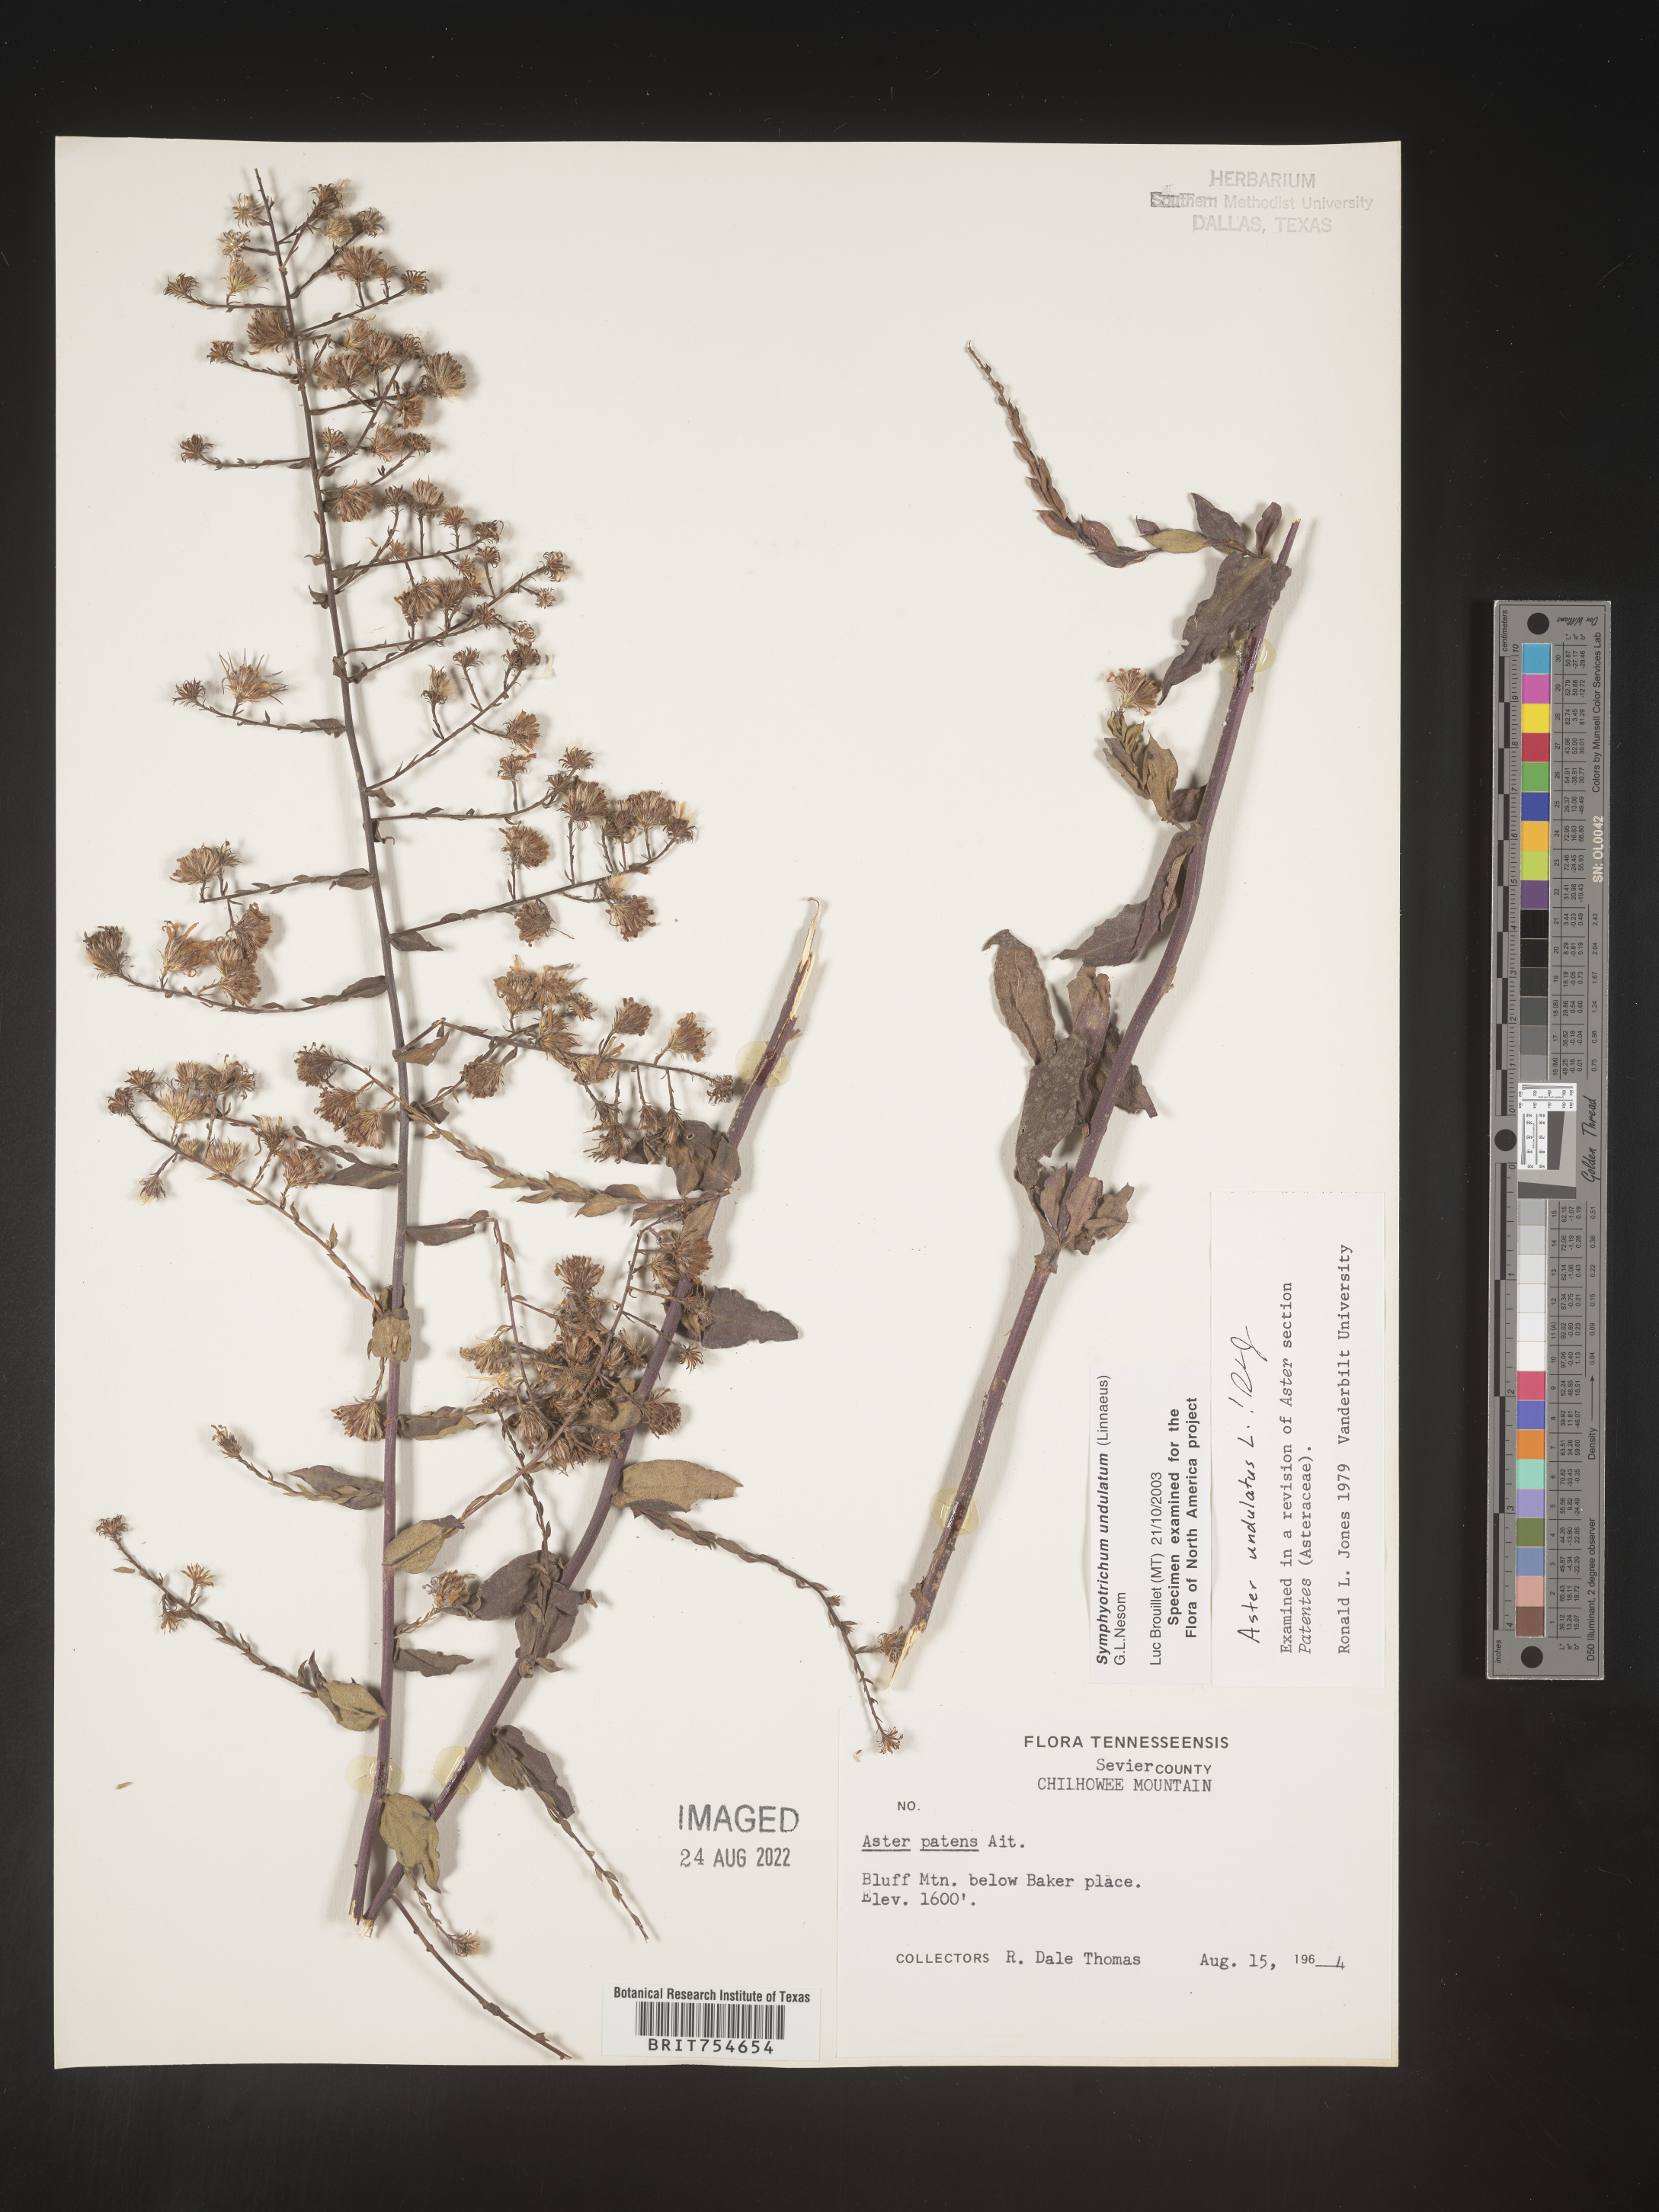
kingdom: Plantae
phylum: Tracheophyta
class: Magnoliopsida
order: Asterales
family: Asteraceae
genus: Symphyotrichum
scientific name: Symphyotrichum undulatum
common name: Clasping heart-leaf aster
